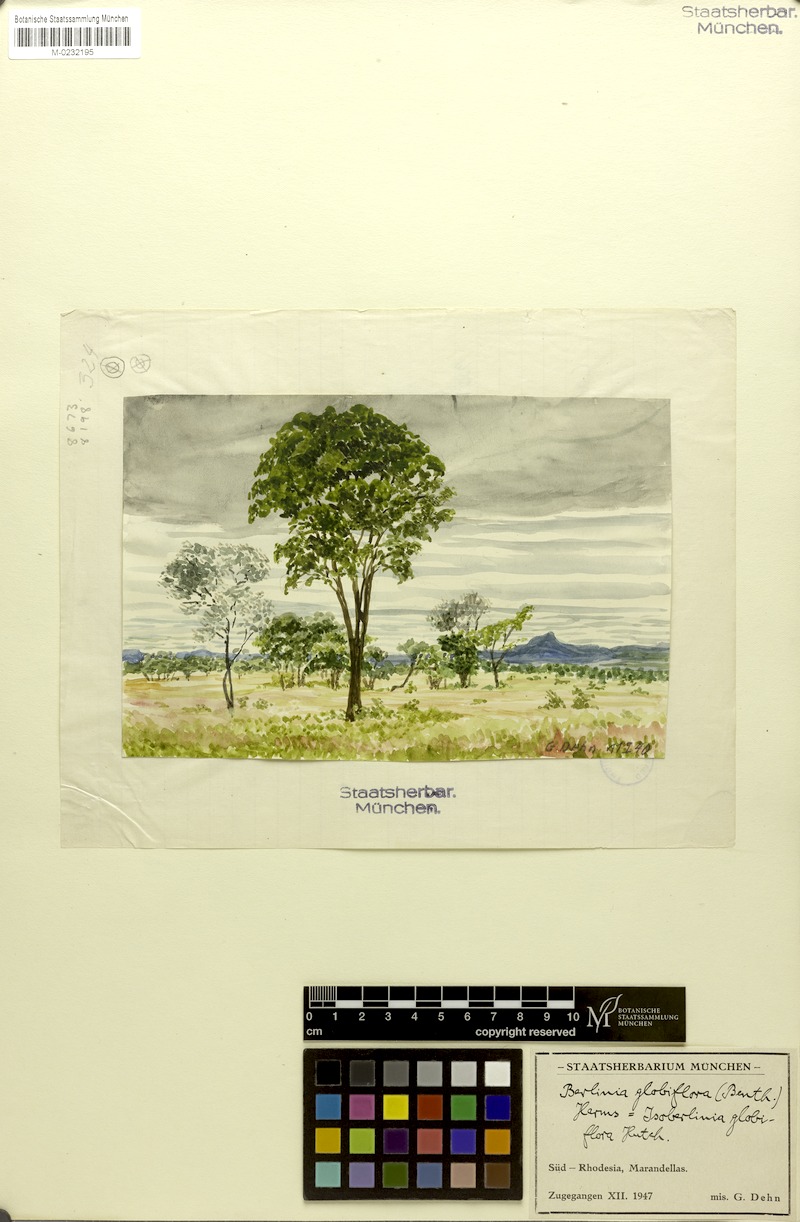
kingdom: Plantae
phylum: Tracheophyta
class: Magnoliopsida
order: Fabales
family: Fabaceae
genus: Julbernardia
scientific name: Julbernardia globiflora
